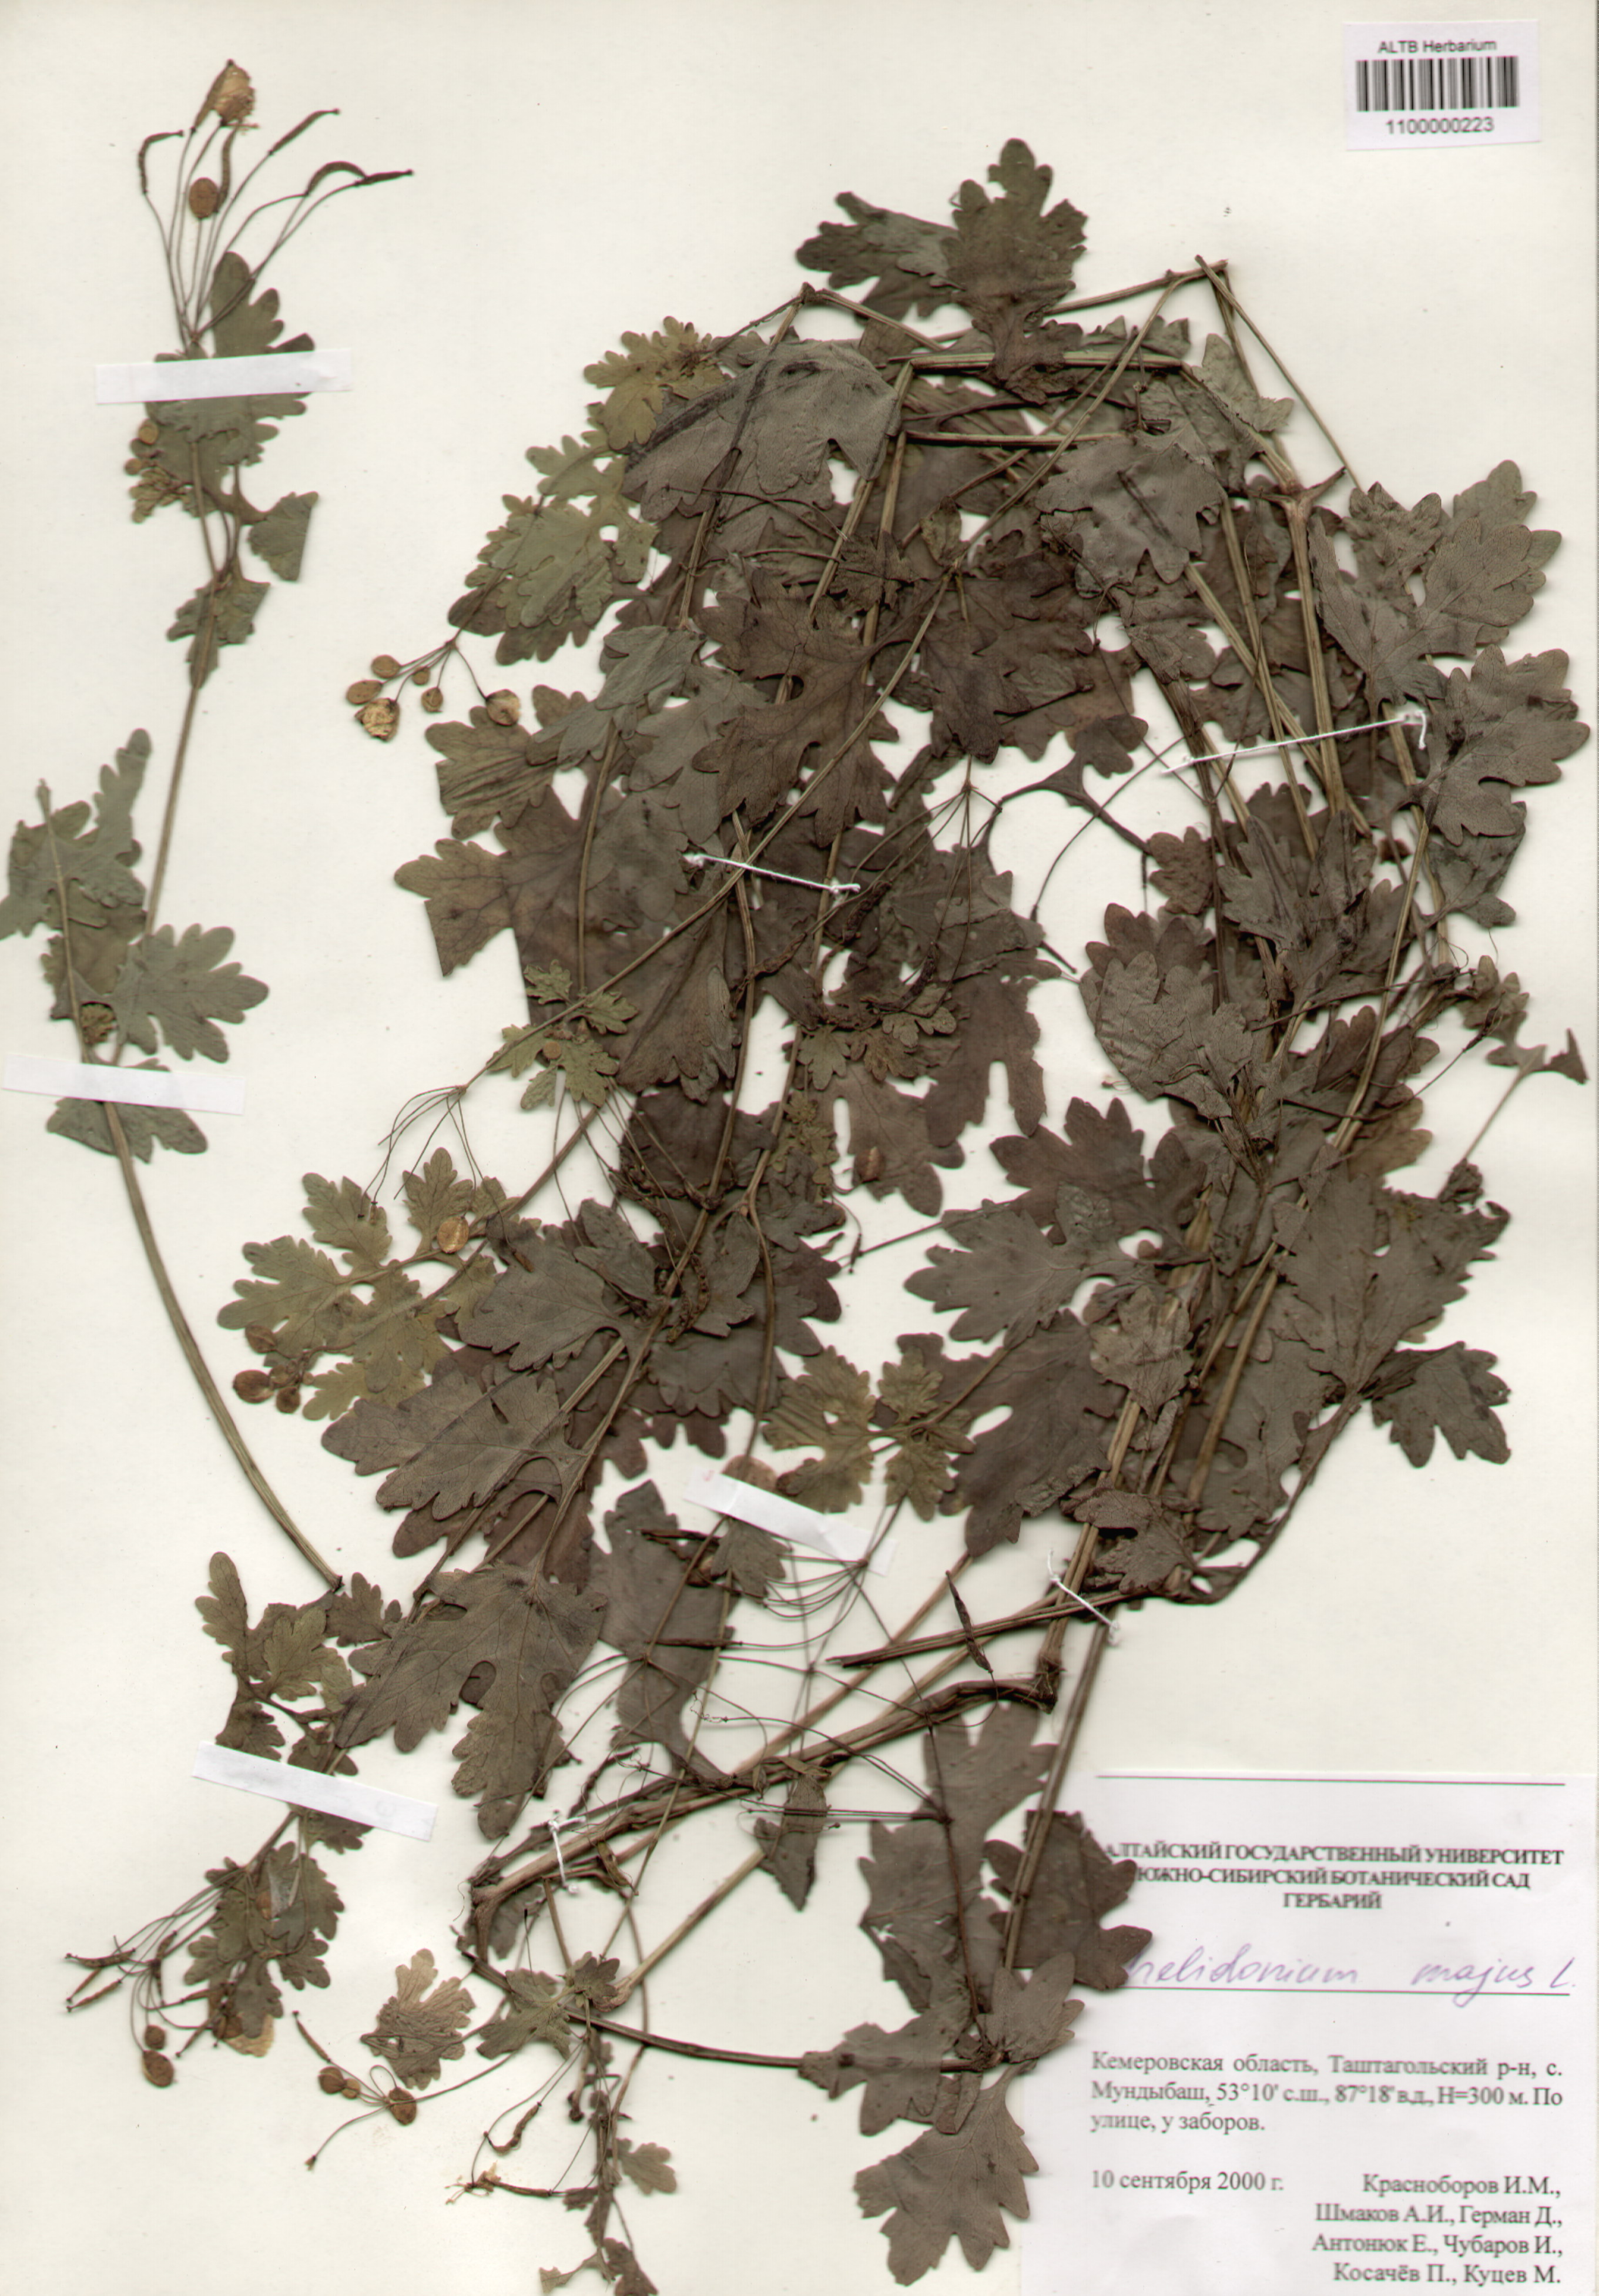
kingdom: Plantae
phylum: Tracheophyta
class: Magnoliopsida
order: Ranunculales
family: Papaveraceae
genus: Chelidonium
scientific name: Chelidonium majus
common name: Greater celandine
